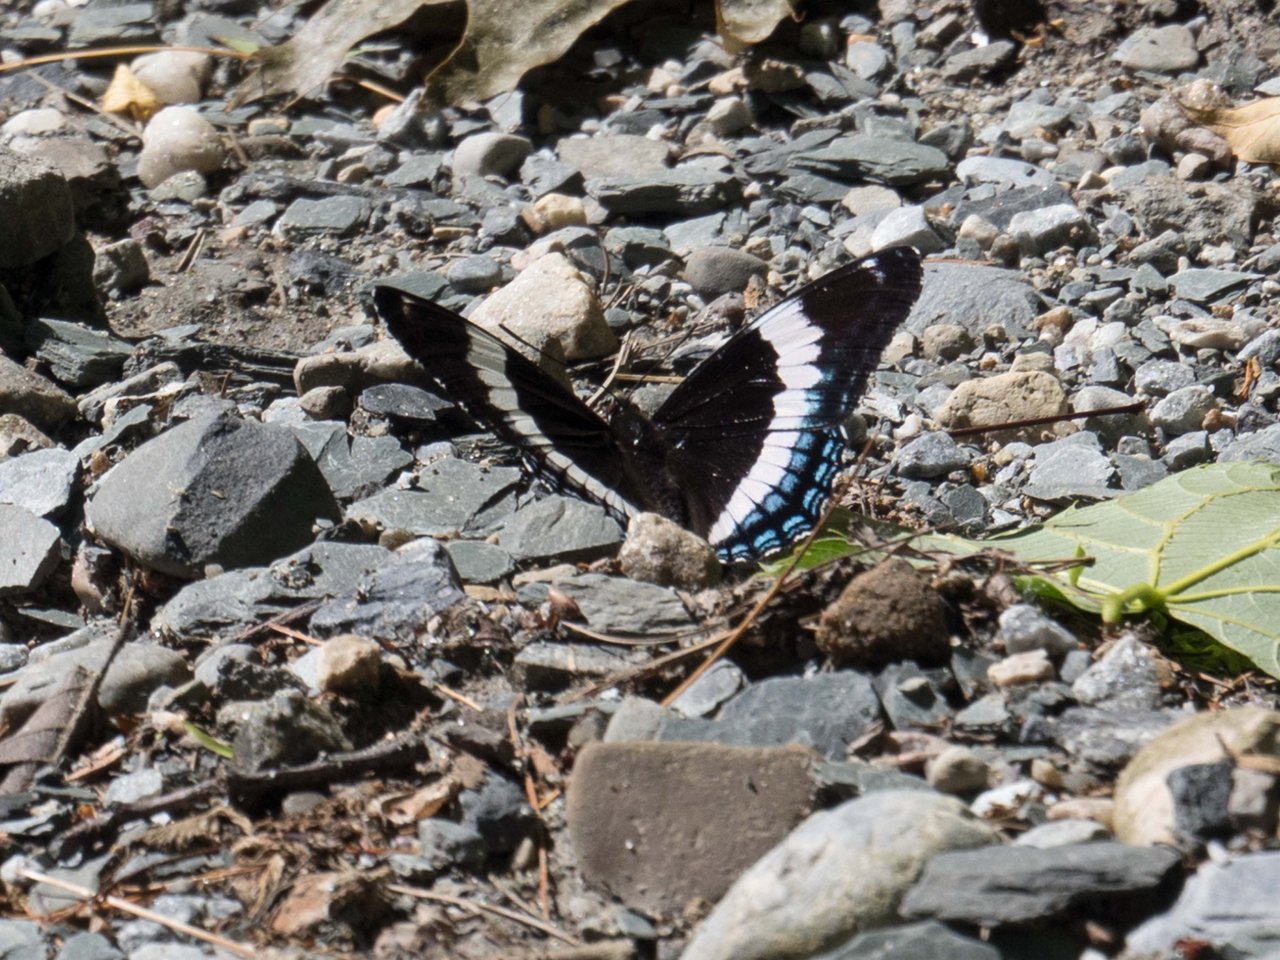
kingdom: Animalia
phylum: Arthropoda
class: Insecta
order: Lepidoptera
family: Nymphalidae
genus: Limenitis
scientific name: Limenitis arthemis
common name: Red-spotted Admiral
